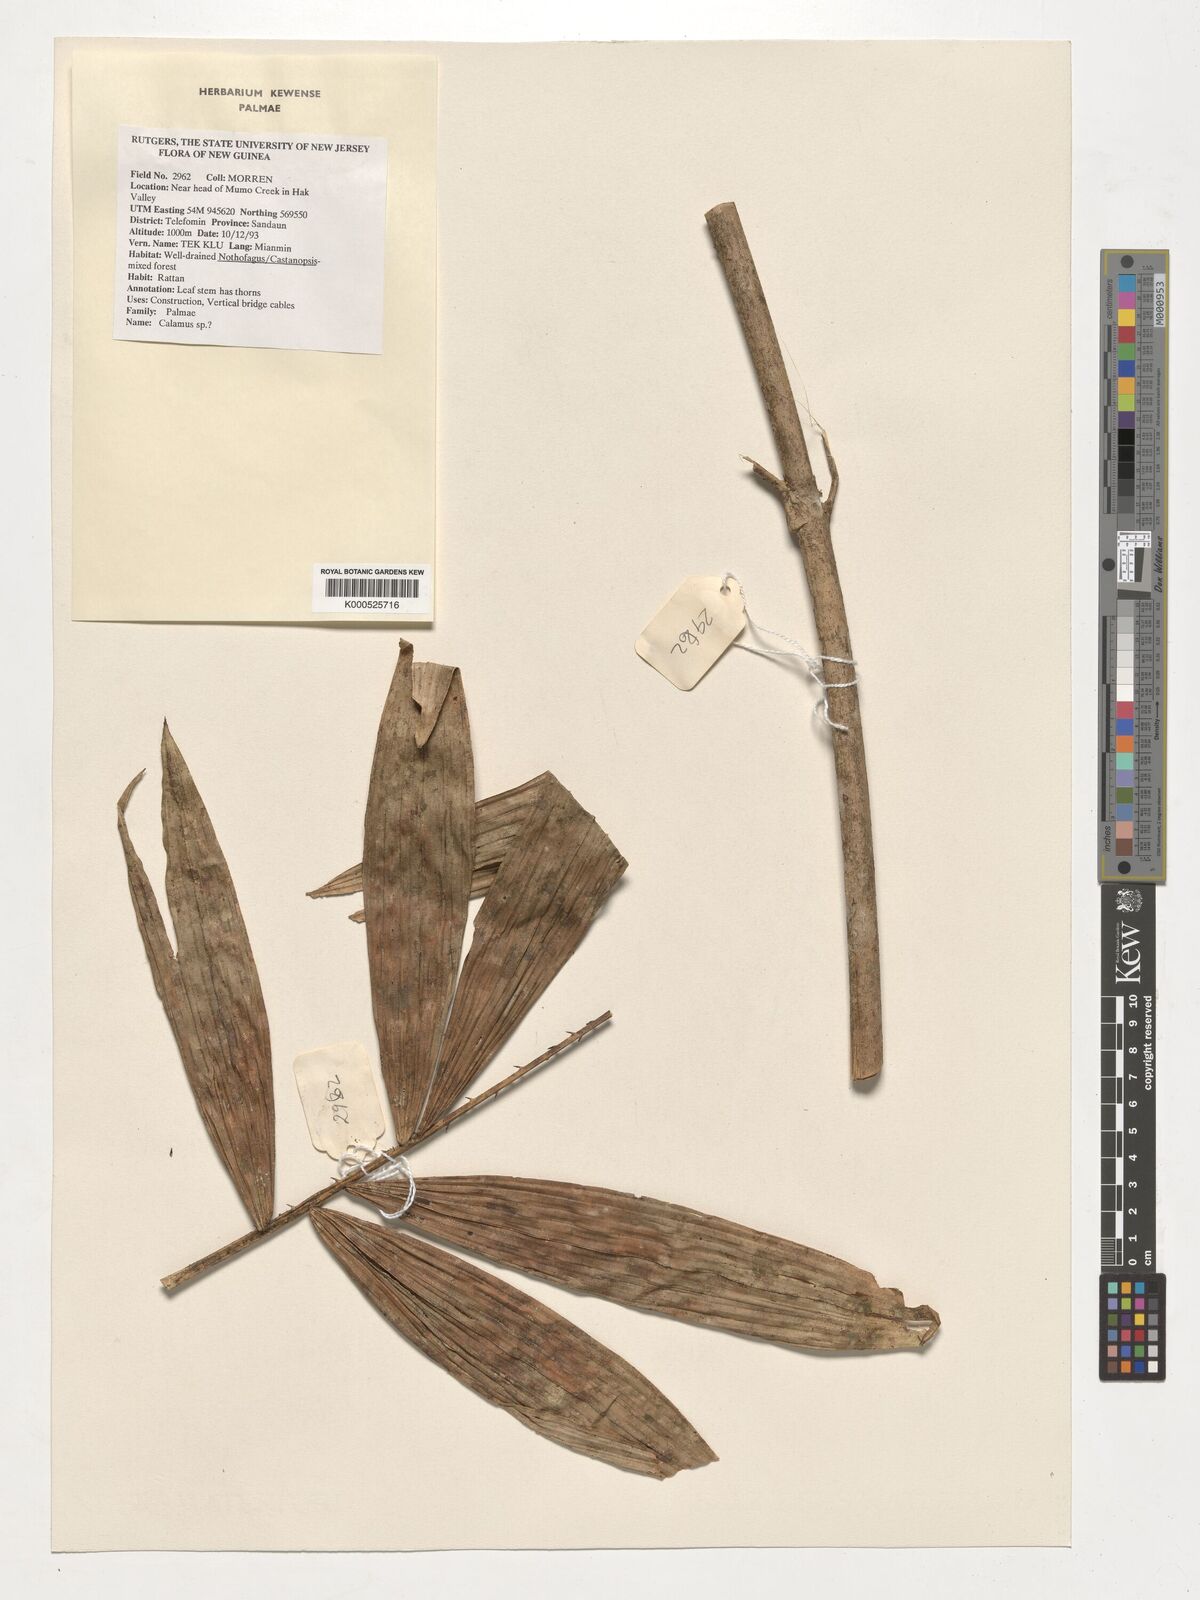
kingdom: Plantae
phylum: Tracheophyta
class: Liliopsida
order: Arecales
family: Arecaceae
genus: Calamus
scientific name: Calamus
